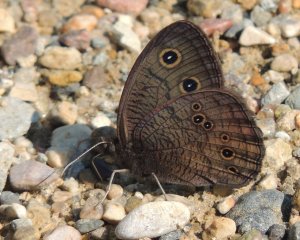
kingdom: Animalia
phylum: Arthropoda
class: Insecta
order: Lepidoptera
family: Nymphalidae
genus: Cercyonis
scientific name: Cercyonis pegala
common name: Common Wood-Nymph
